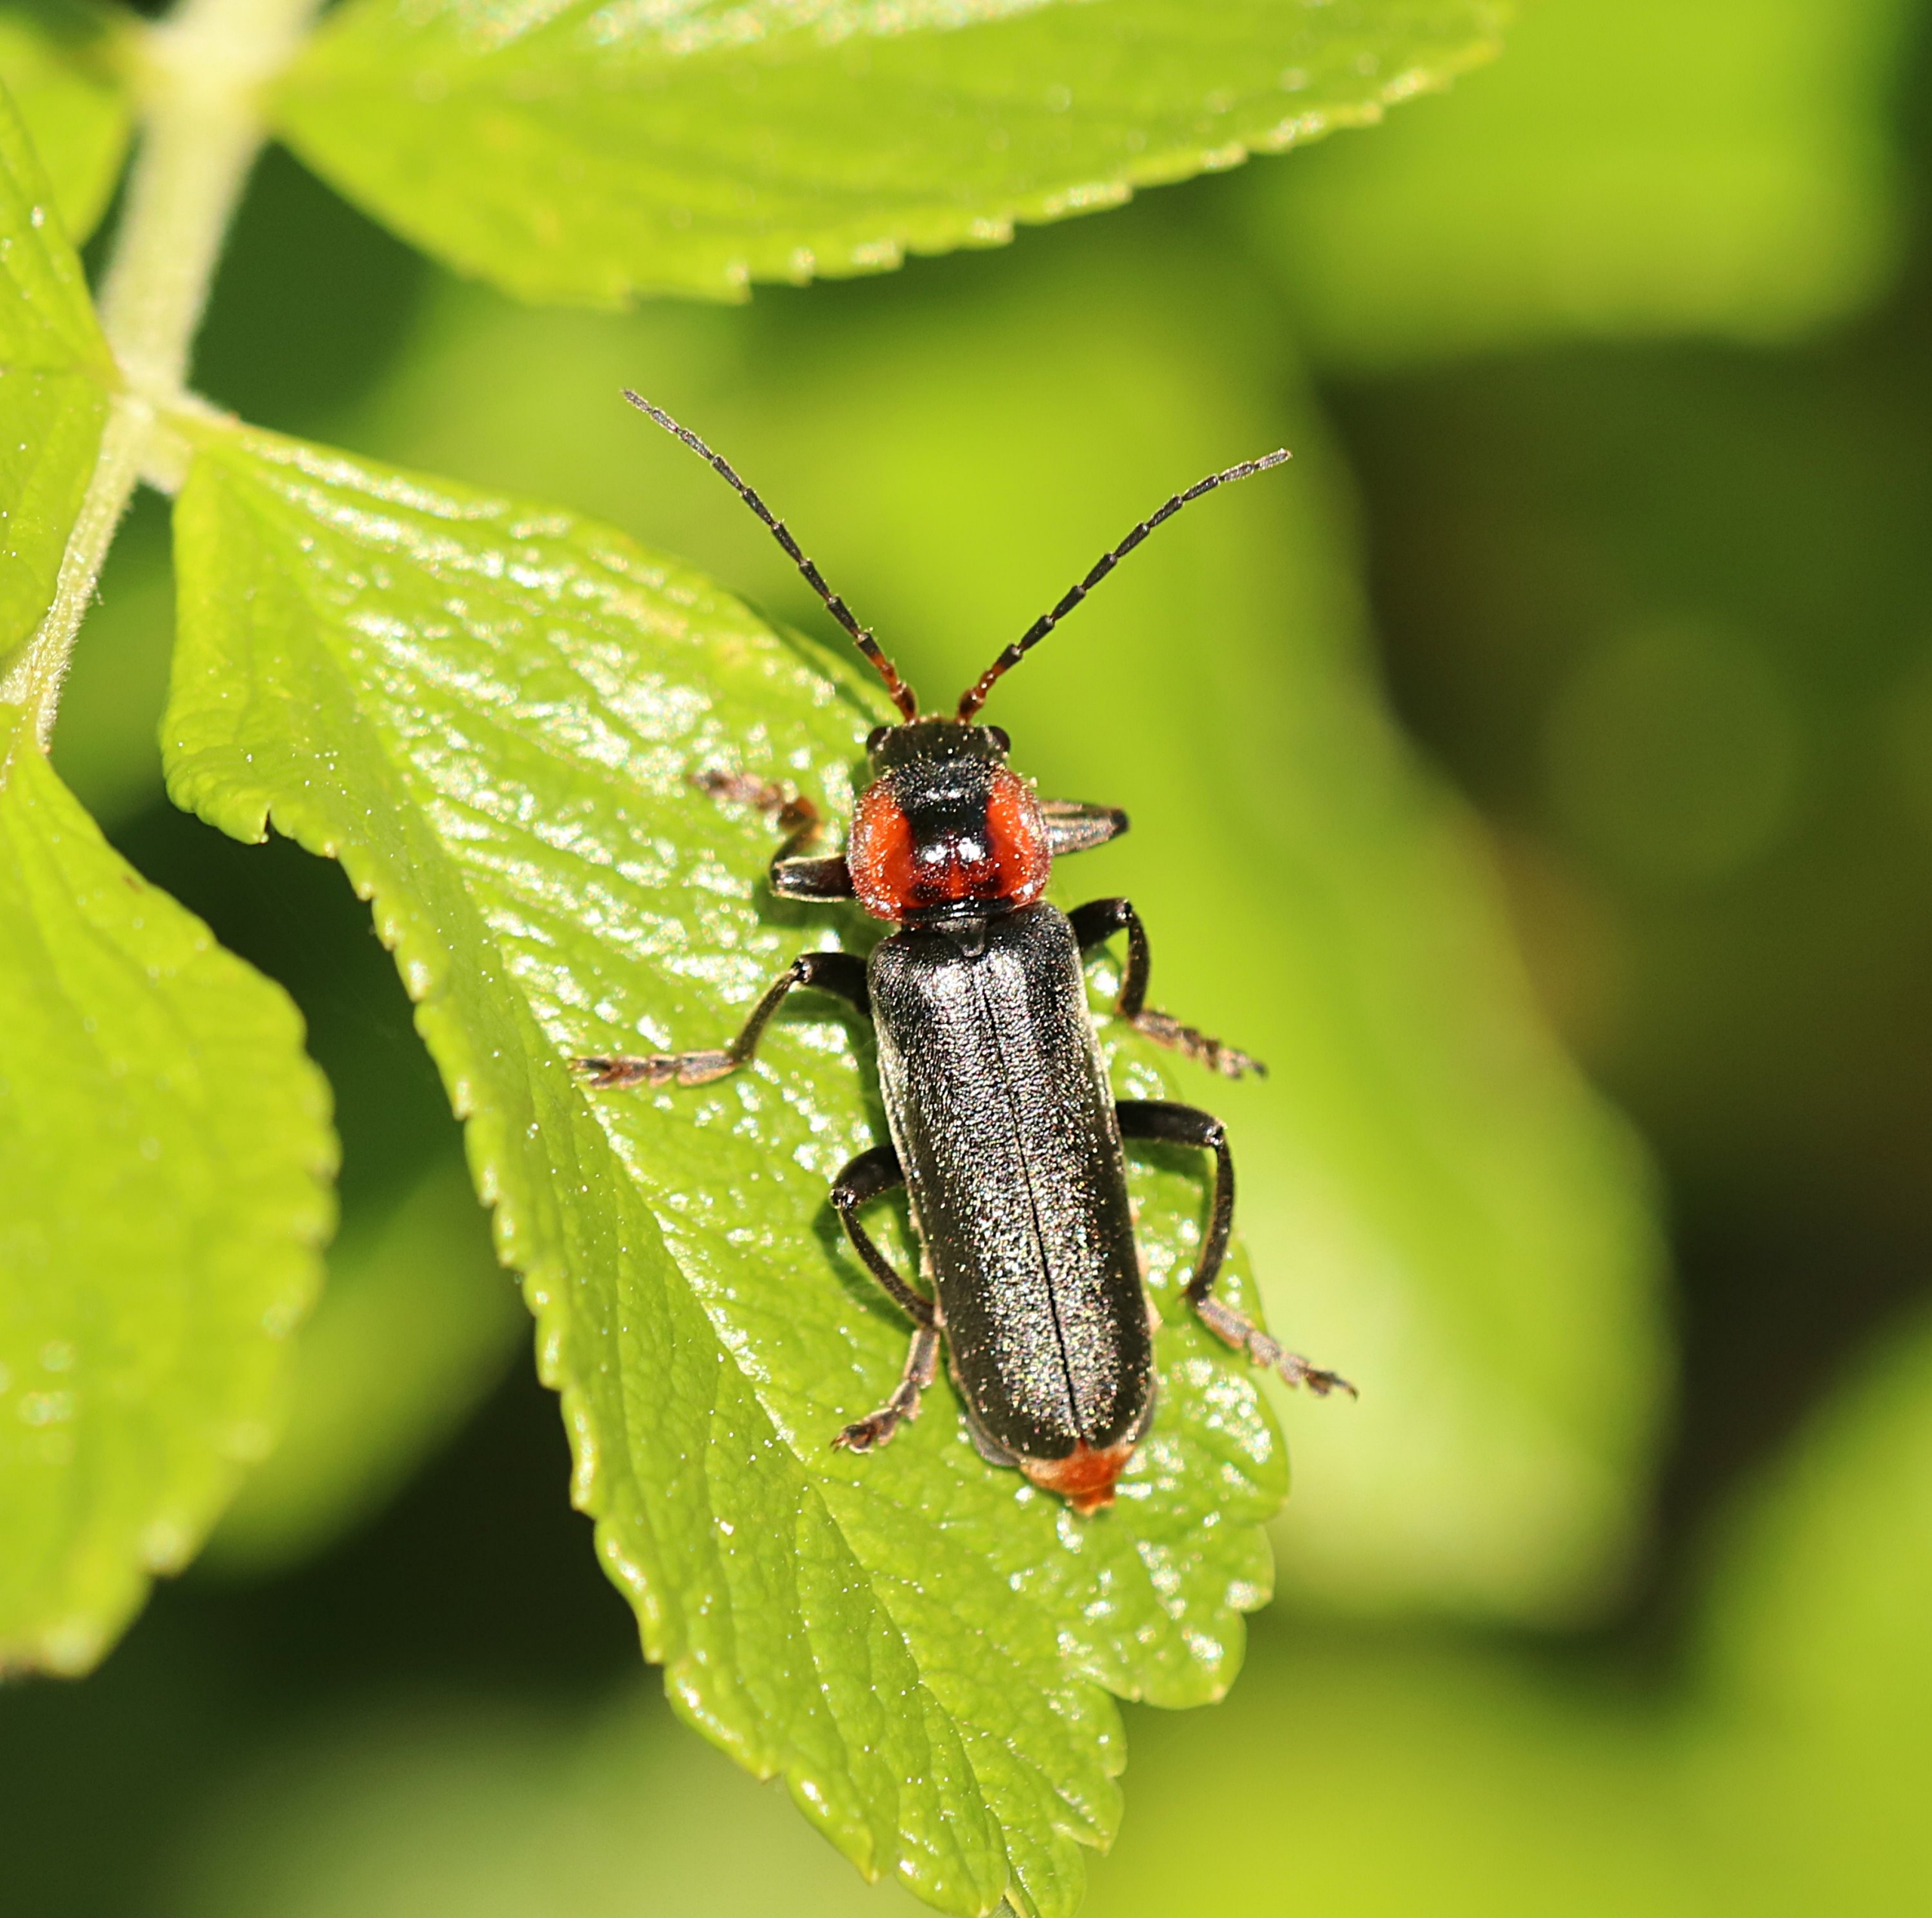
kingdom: Animalia
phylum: Arthropoda
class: Insecta
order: Coleoptera
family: Cantharidae
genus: Cantharis
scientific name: Cantharis fusca
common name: Stor blødvinge
